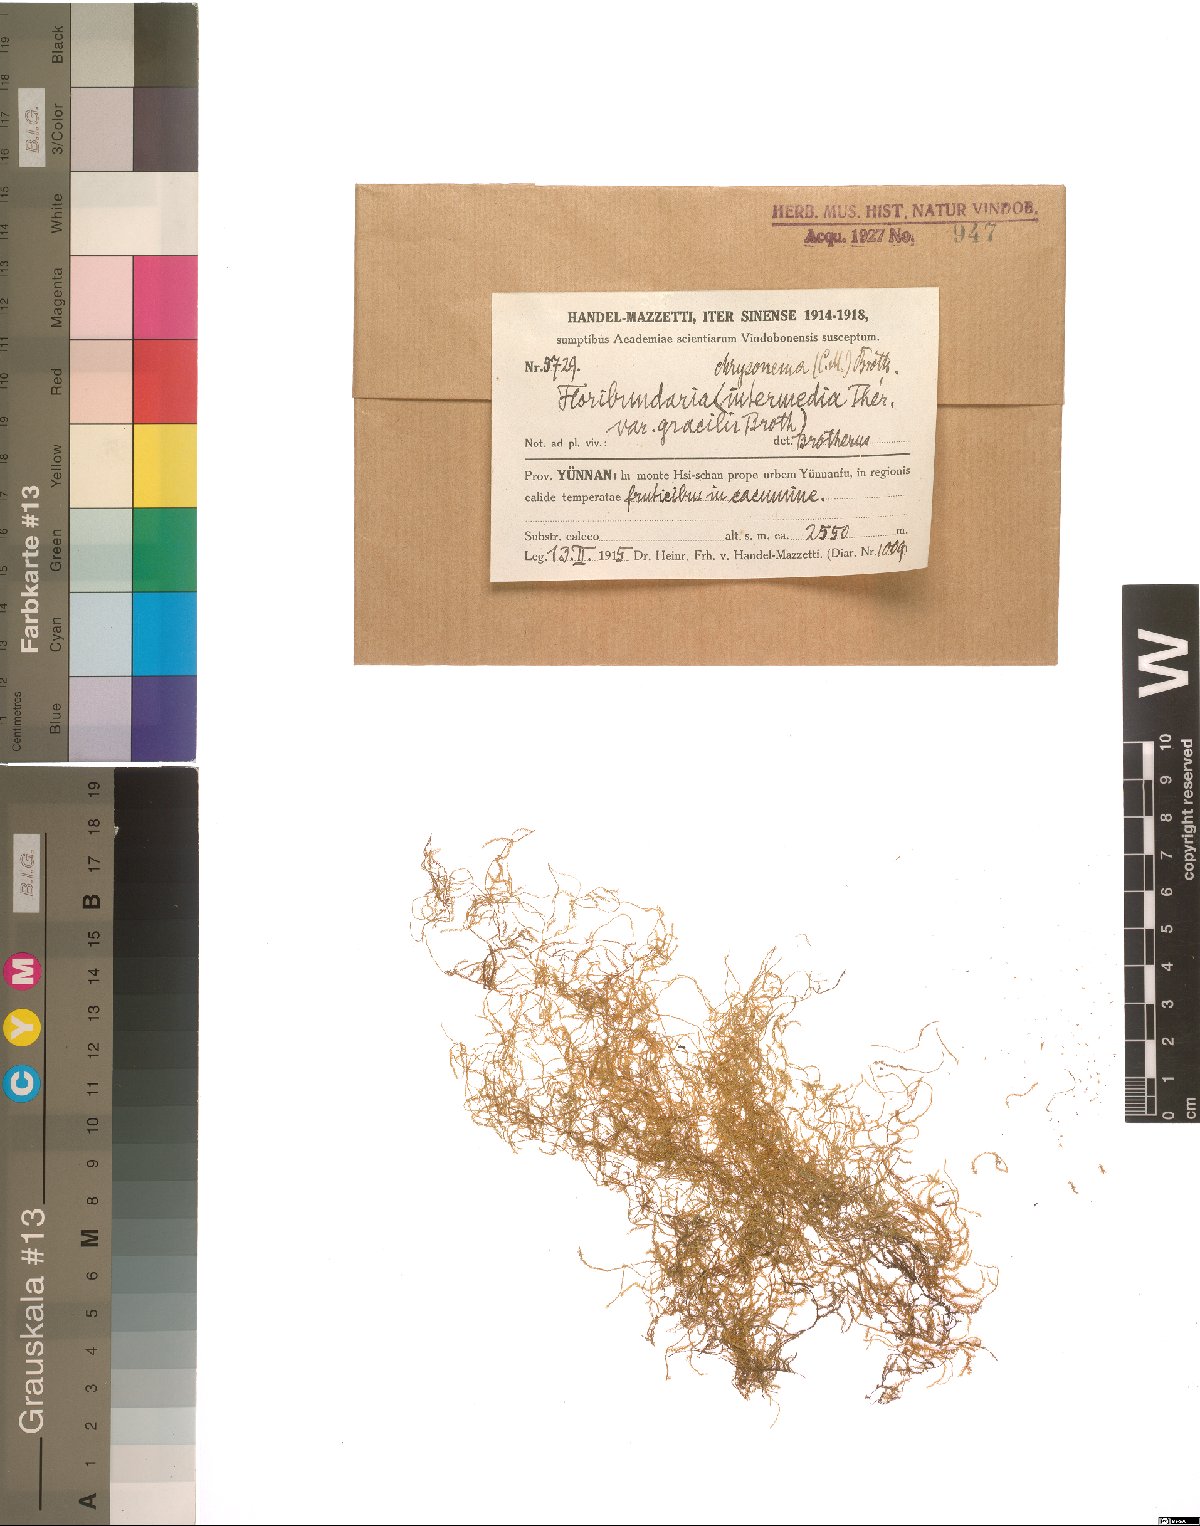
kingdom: Plantae
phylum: Bryophyta
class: Bryopsida
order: Hypnales
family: Meteoriaceae
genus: Barbella
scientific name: Barbella chrysonema
